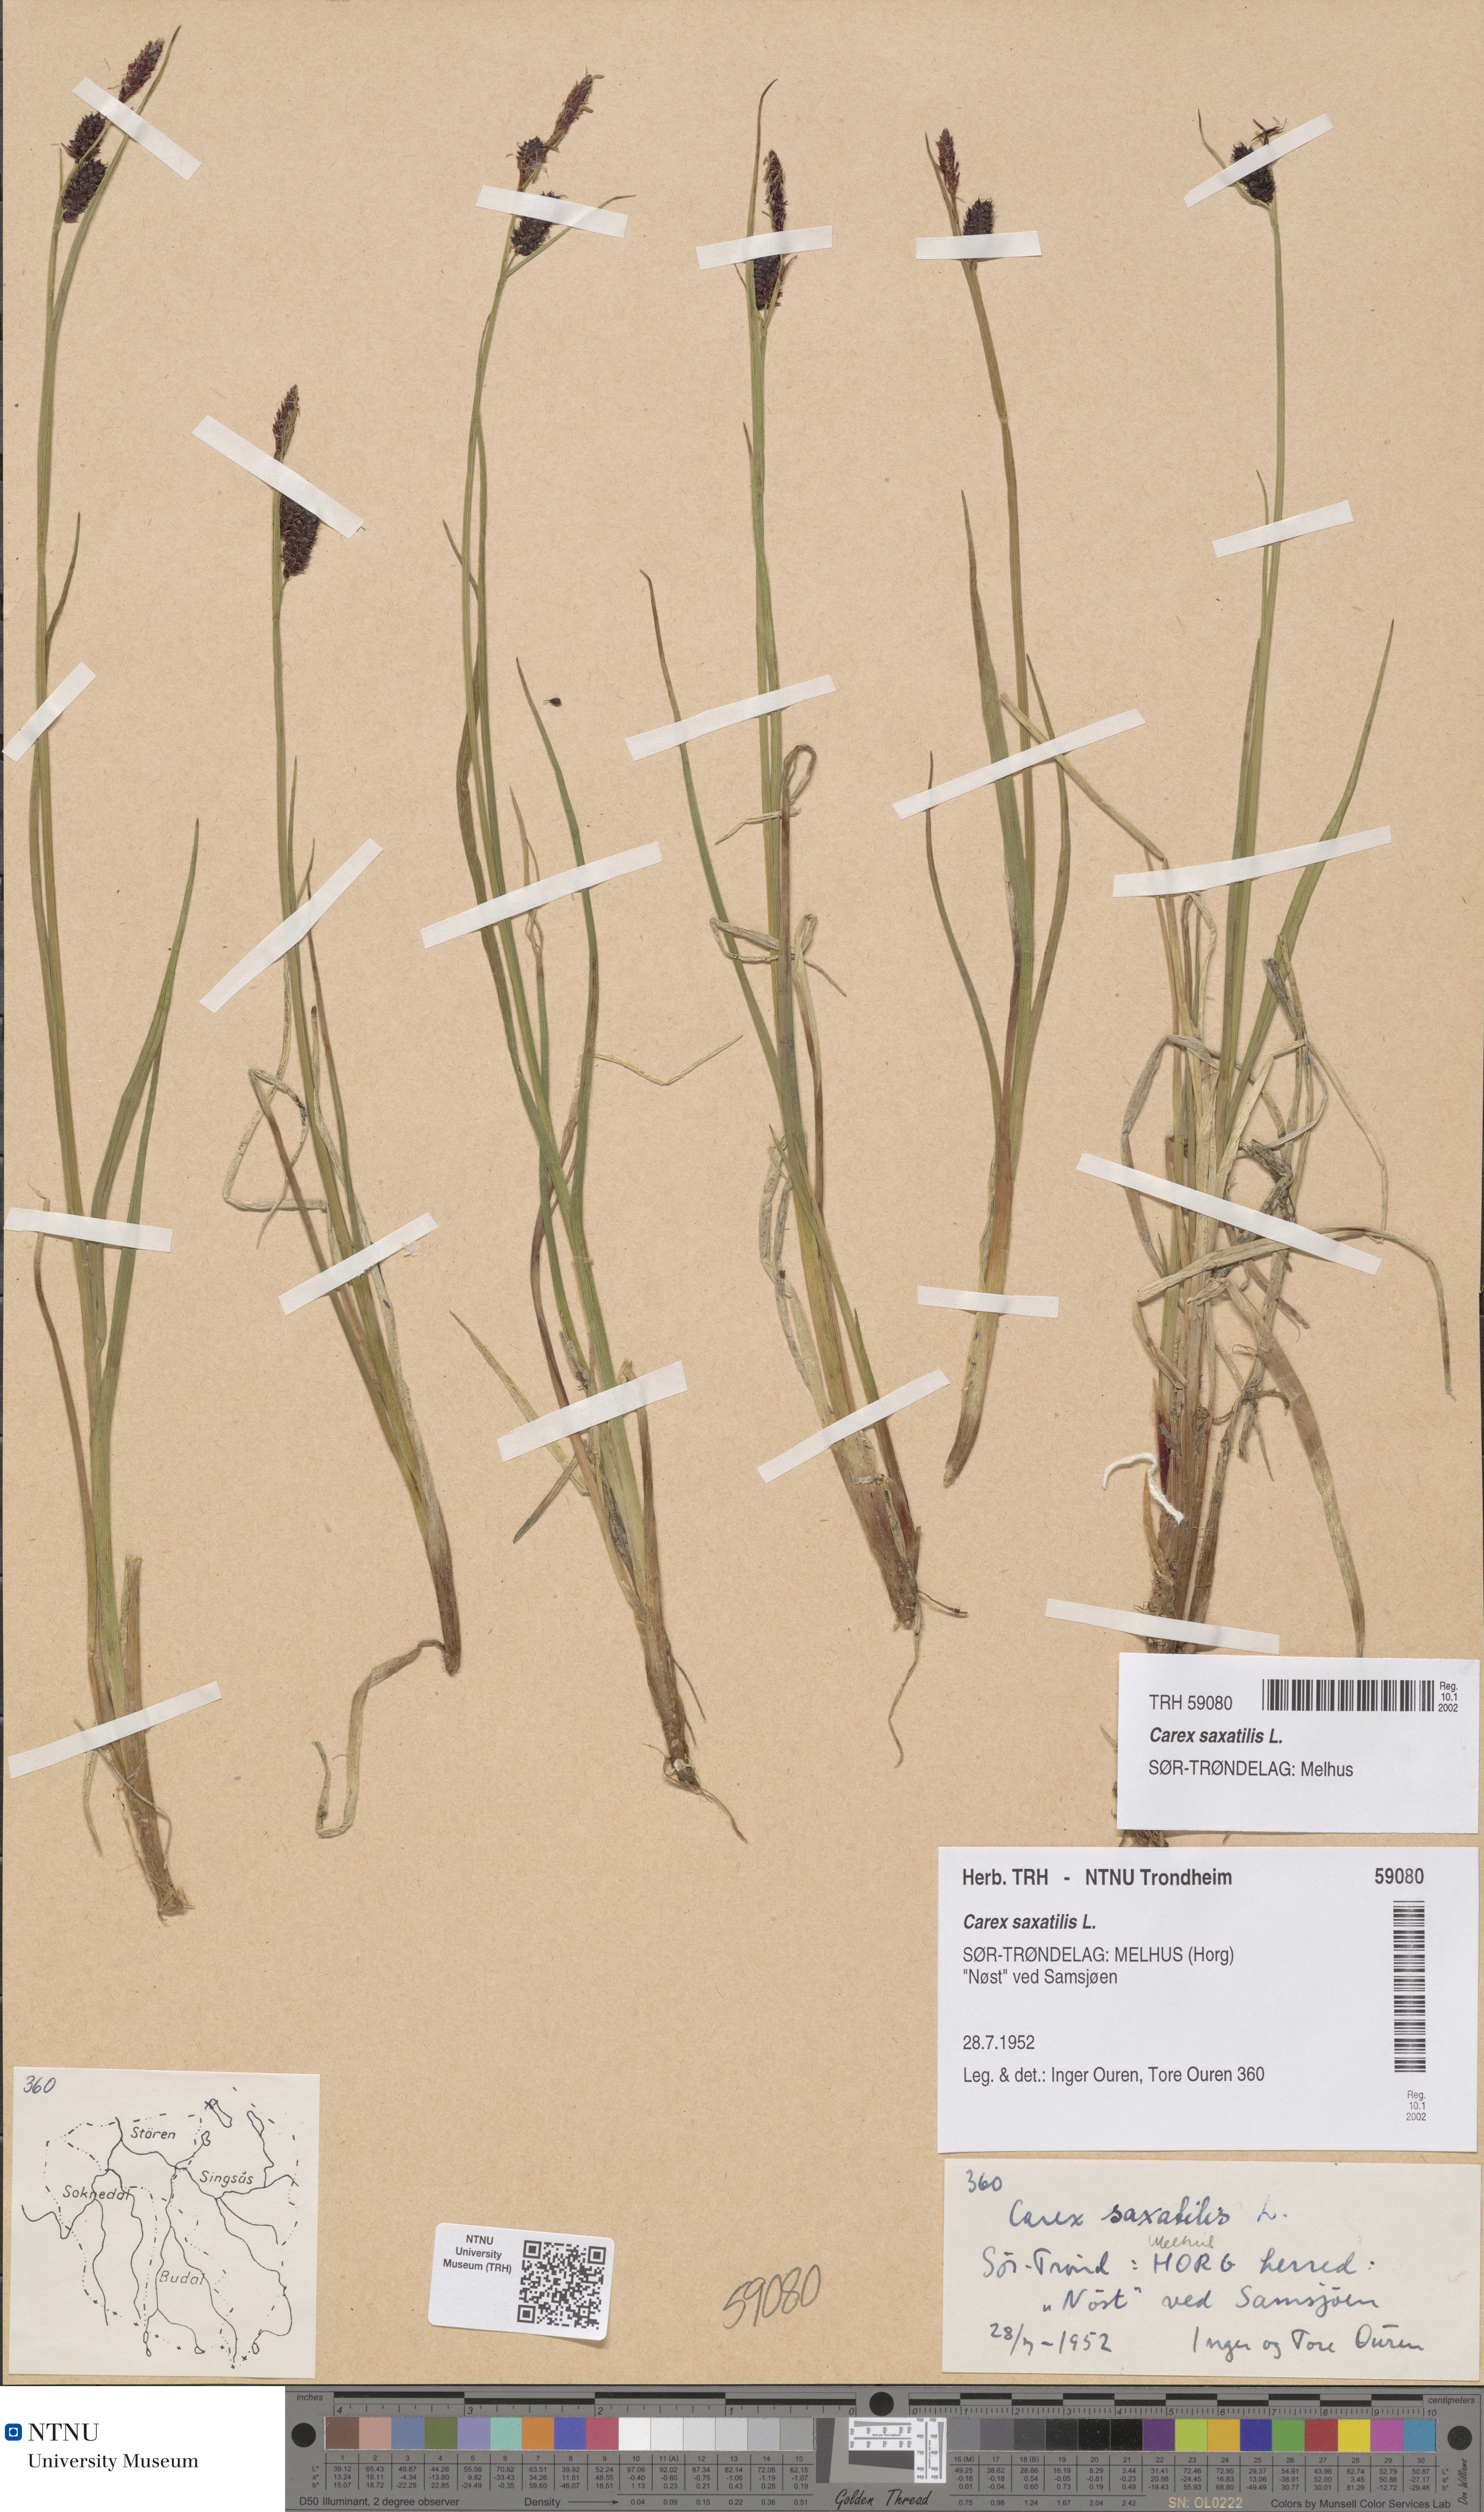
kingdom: Plantae
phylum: Tracheophyta
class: Liliopsida
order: Poales
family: Cyperaceae
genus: Carex
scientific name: Carex saxatilis
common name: Russet sedge
